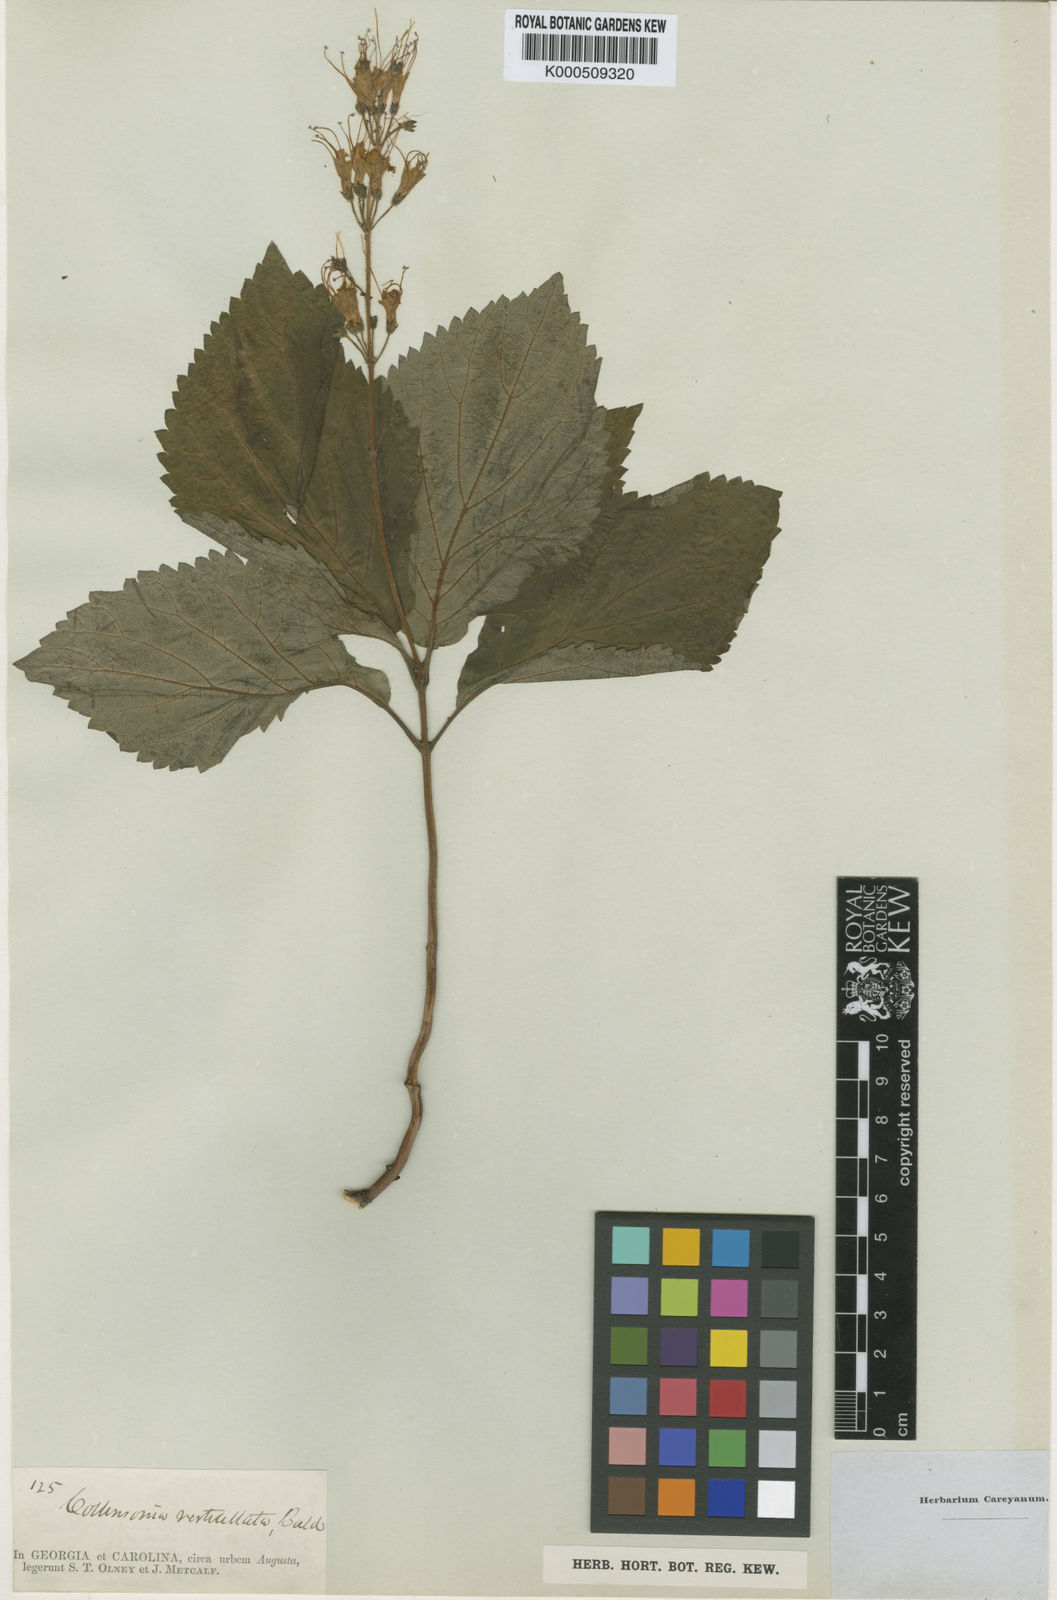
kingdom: Plantae
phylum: Tracheophyta
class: Magnoliopsida
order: Lamiales
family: Lamiaceae
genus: Collinsonia
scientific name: Collinsonia verticillata
